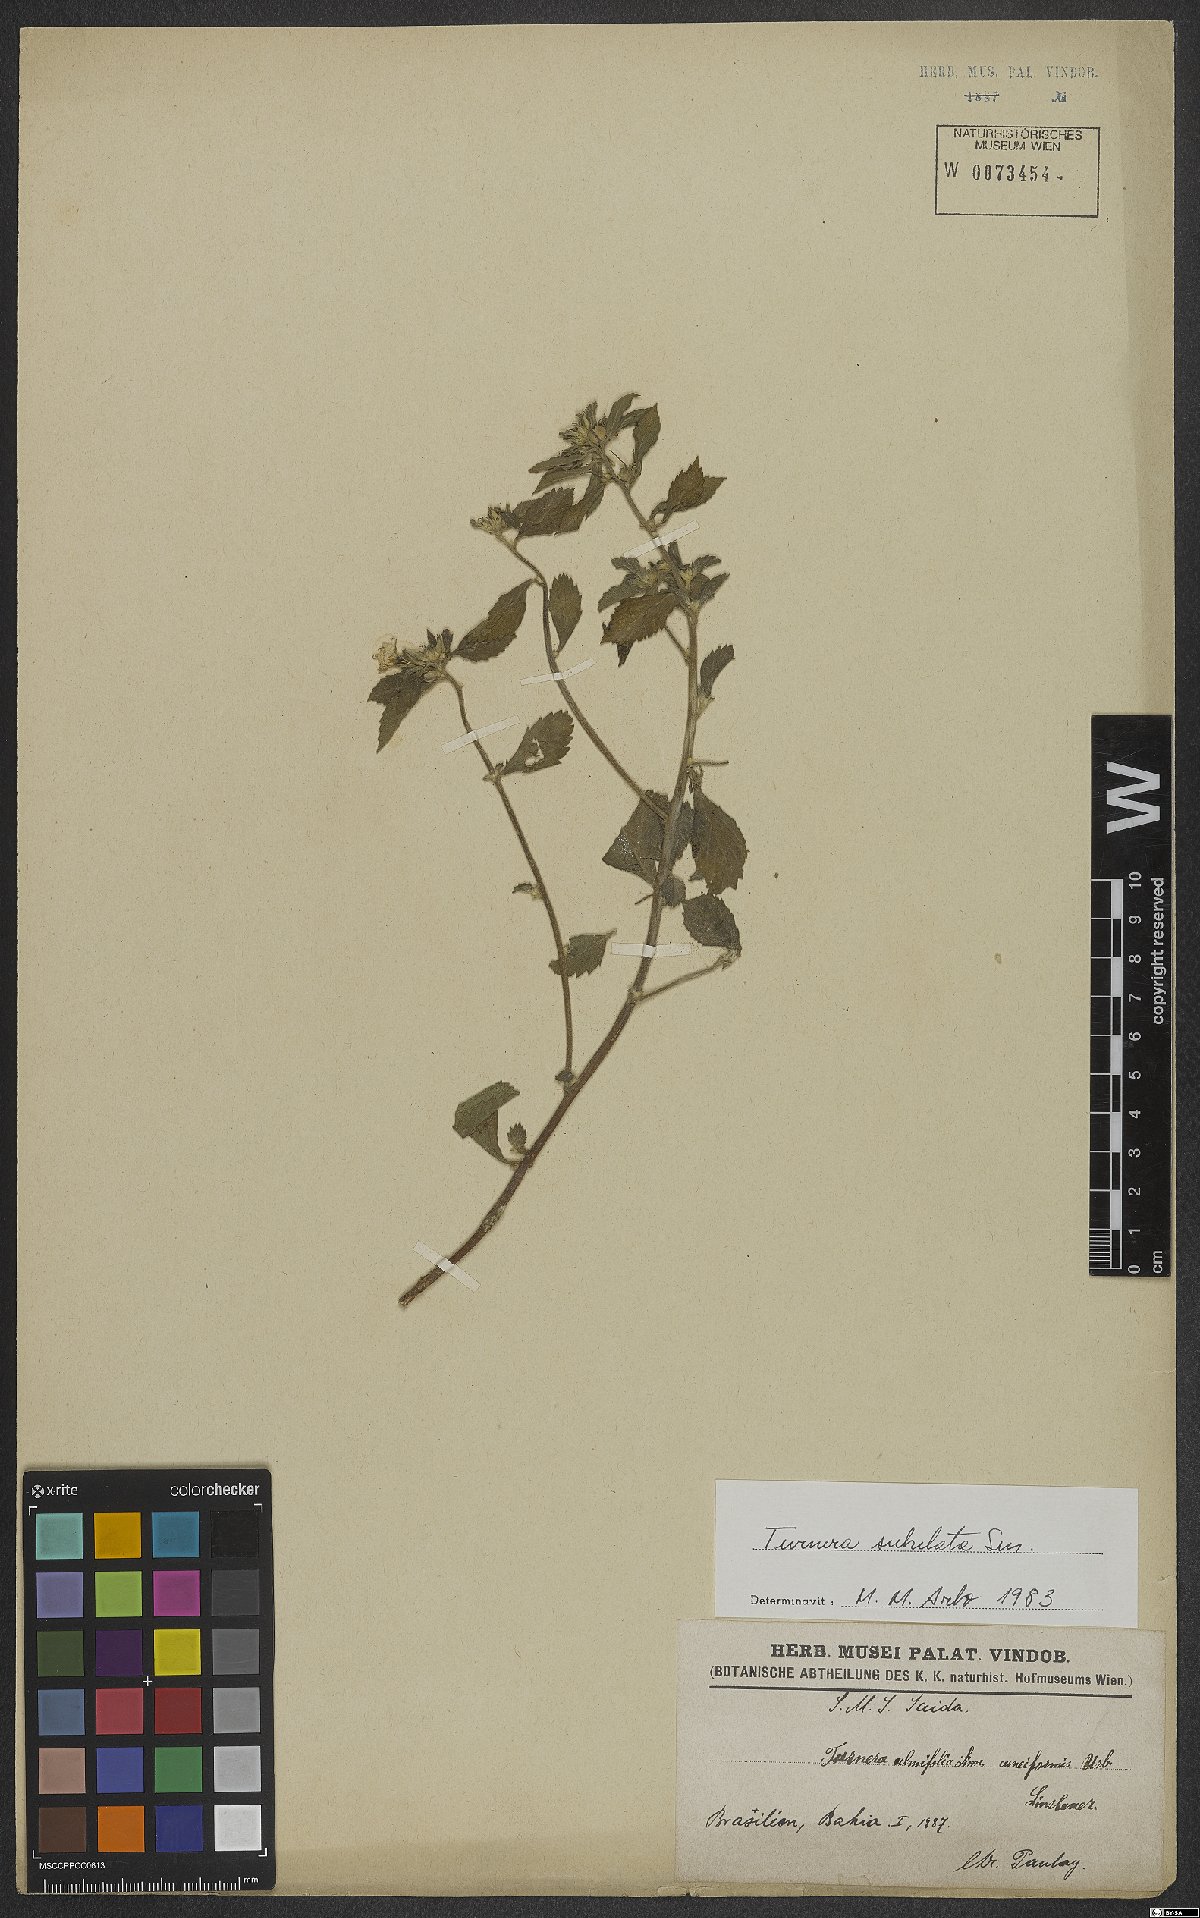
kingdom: Plantae
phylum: Tracheophyta
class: Magnoliopsida
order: Malpighiales
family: Turneraceae
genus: Turnera
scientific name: Turnera subulata
